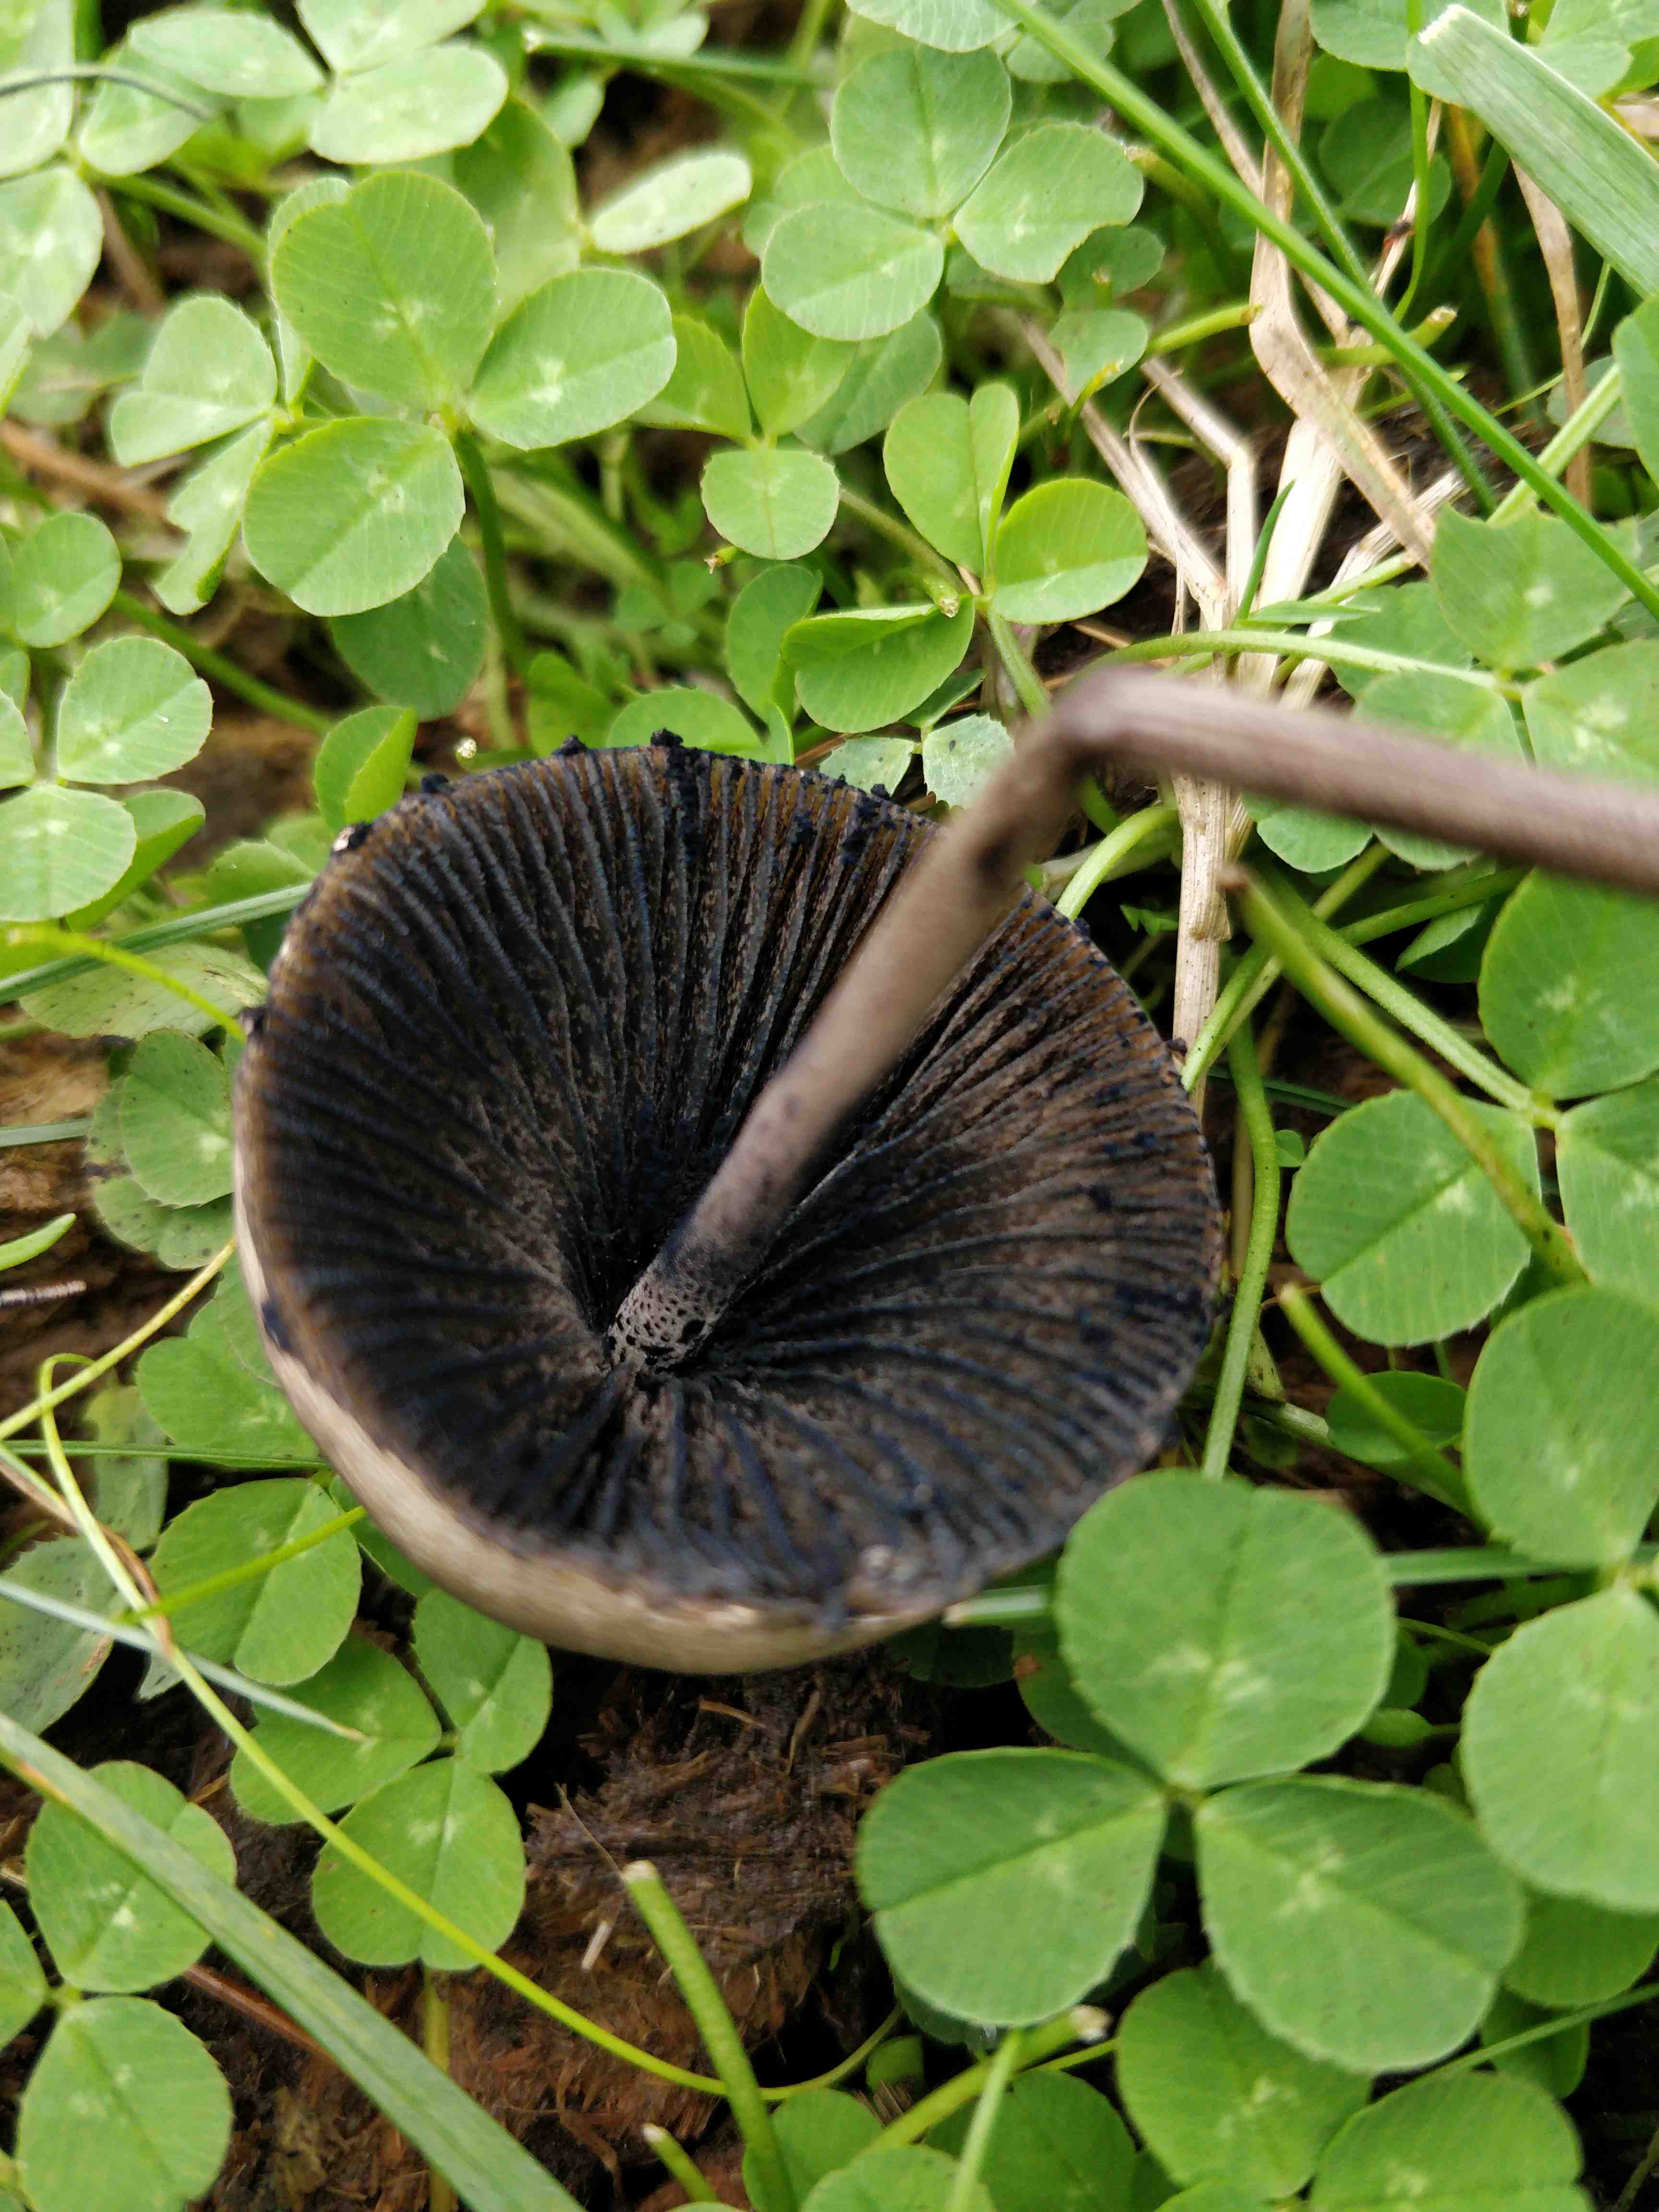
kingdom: Fungi
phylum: Basidiomycota
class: Agaricomycetes
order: Agaricales
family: Bolbitiaceae
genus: Panaeolus
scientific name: Panaeolus papilionaceus
